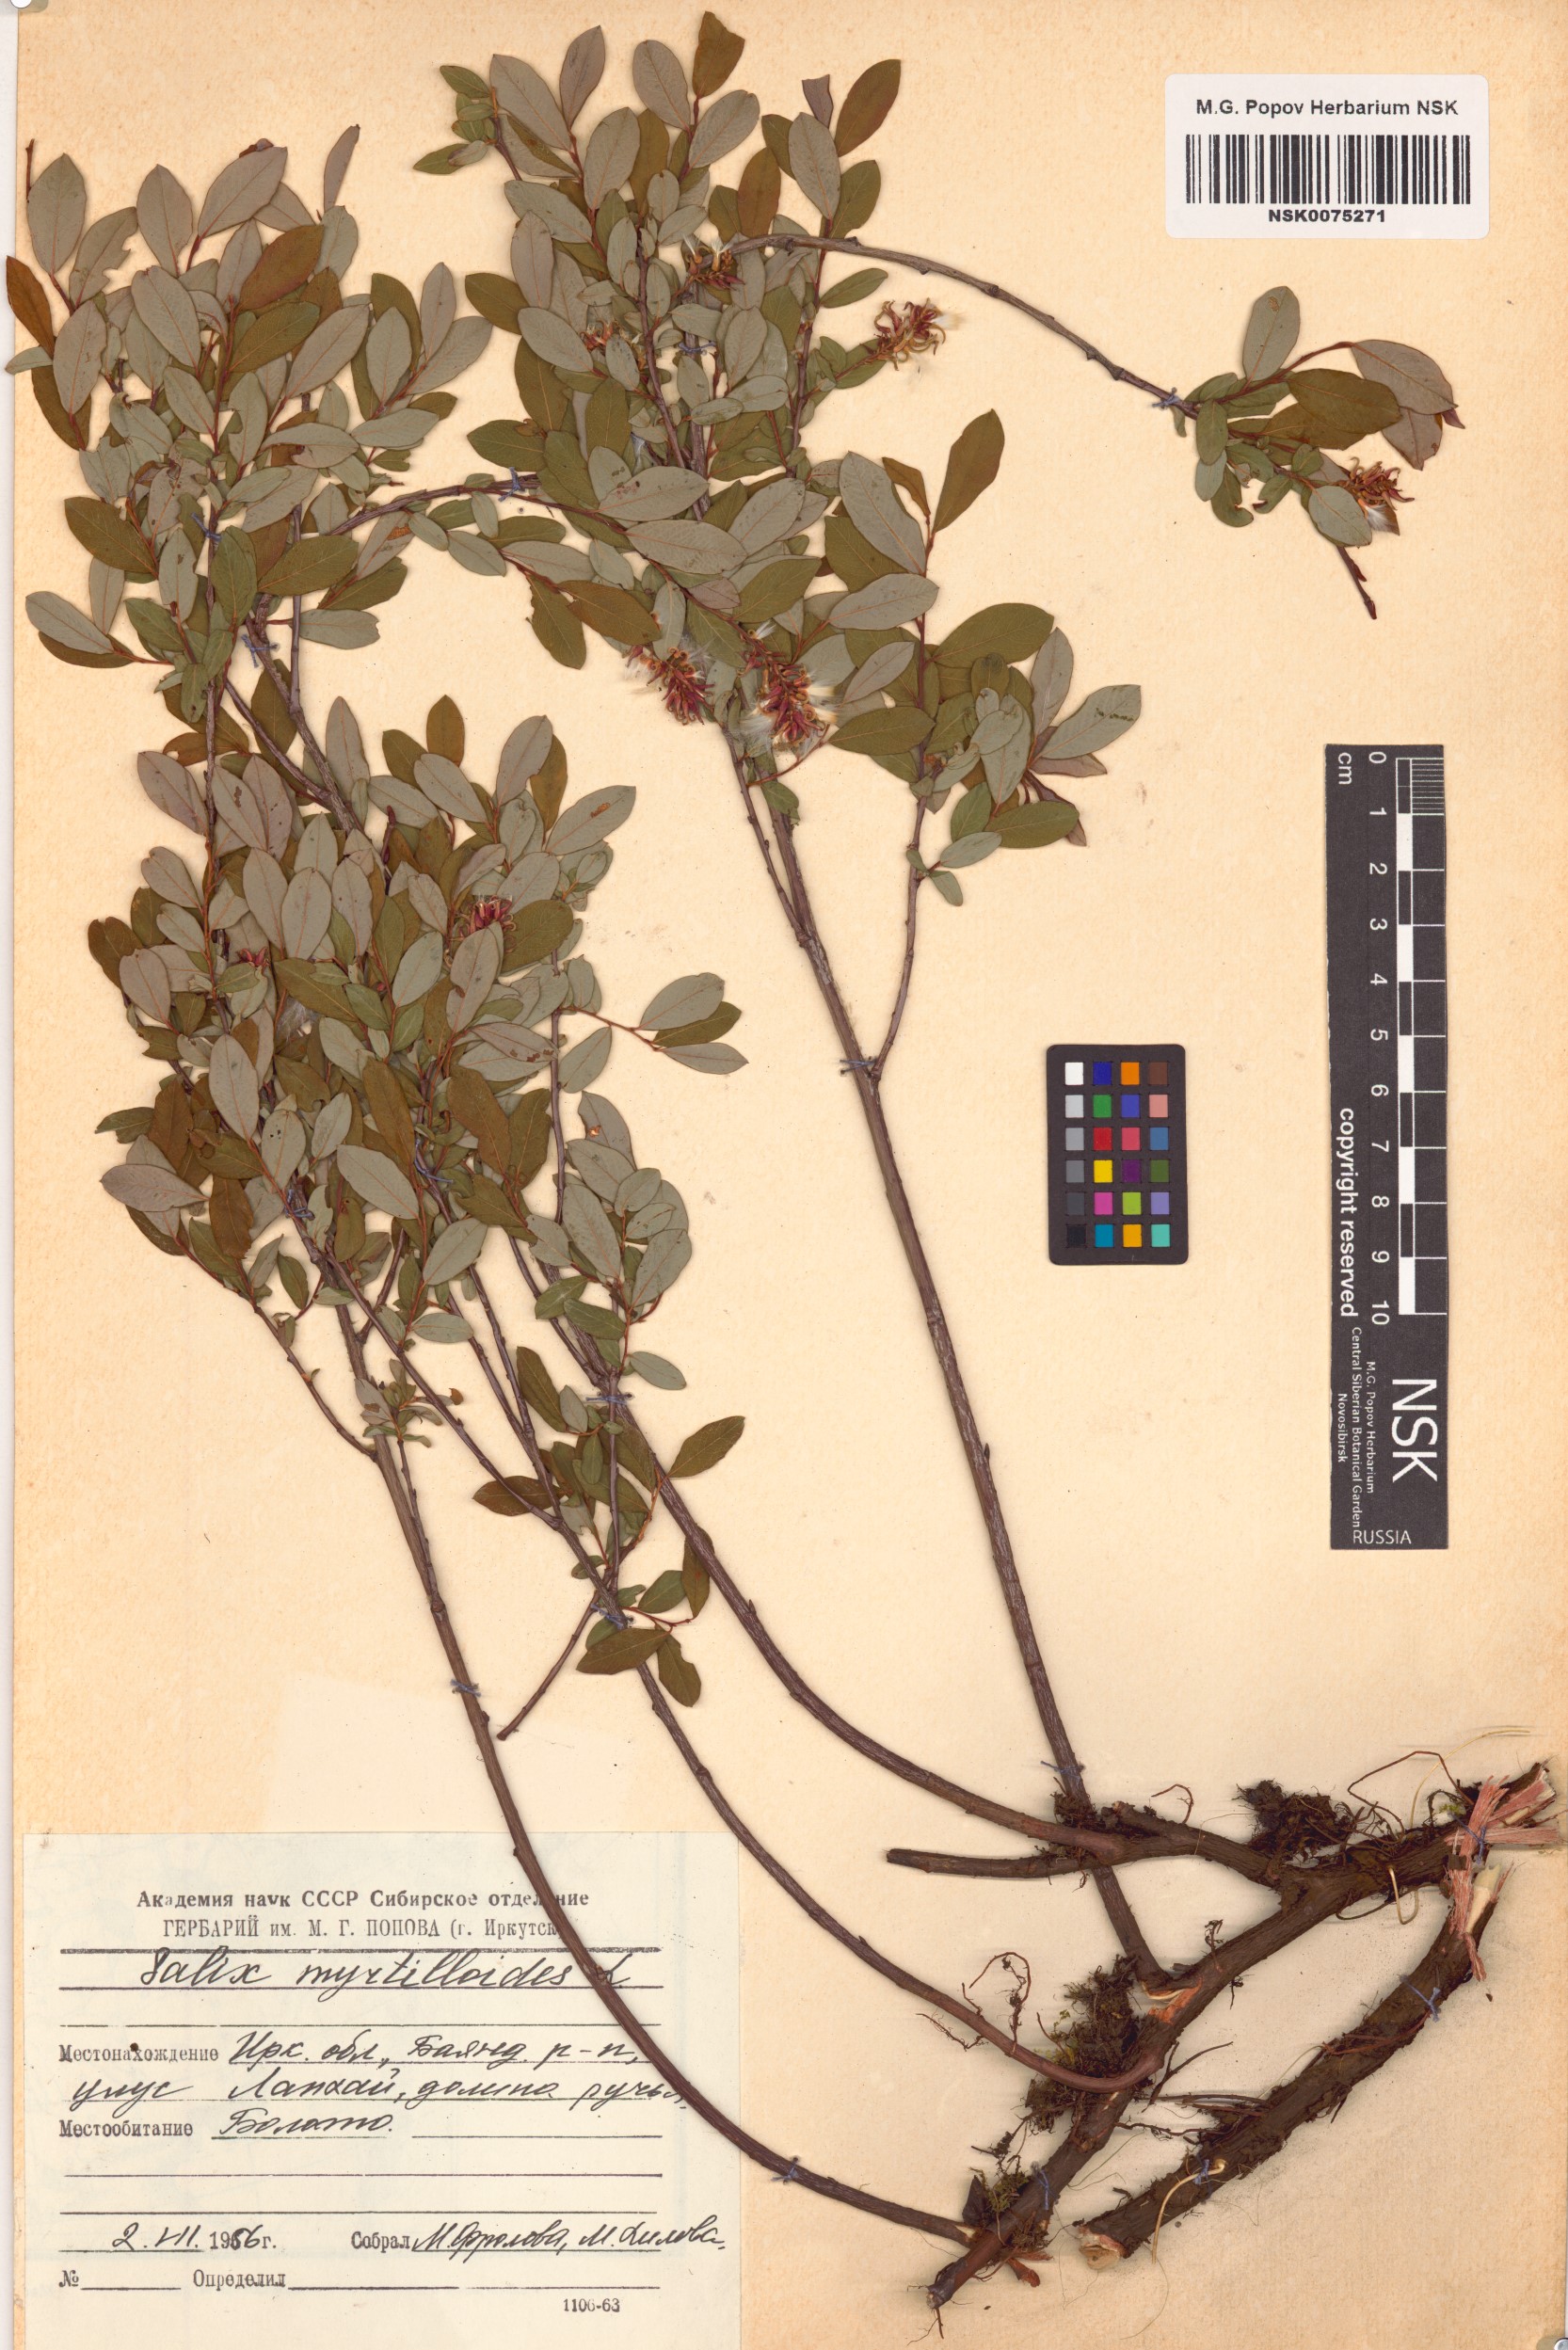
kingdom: Plantae
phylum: Tracheophyta
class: Magnoliopsida
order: Malpighiales
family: Salicaceae
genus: Salix
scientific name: Salix myrtilloides
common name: Myrtle-leaved willow
